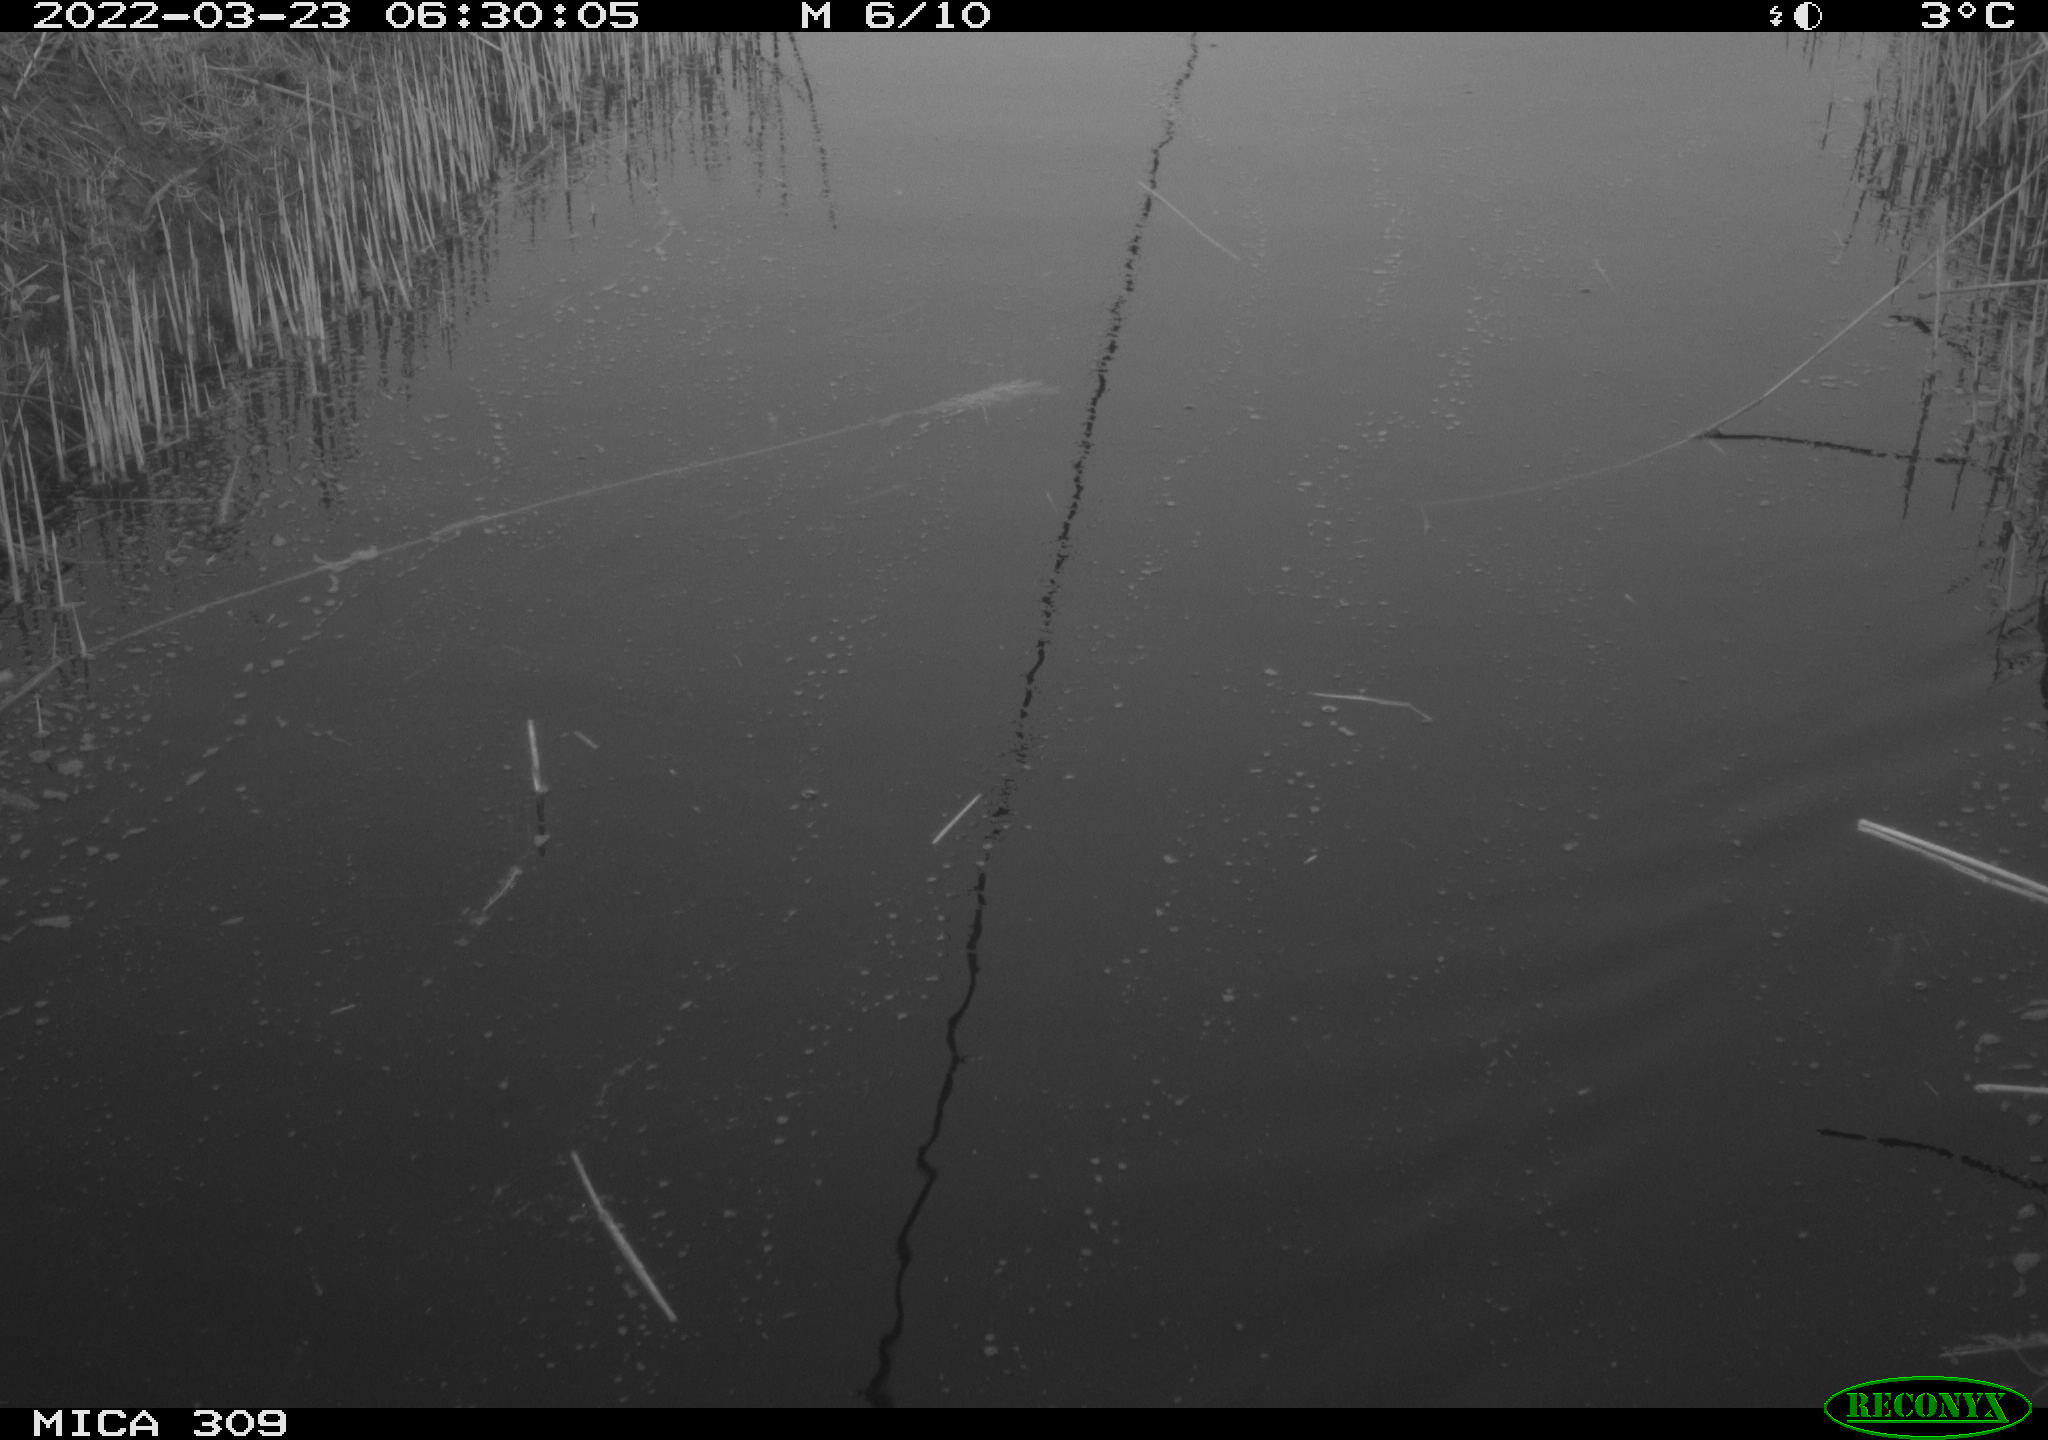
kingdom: Animalia
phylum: Chordata
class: Aves
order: Anseriformes
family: Anatidae
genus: Anas
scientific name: Anas platyrhynchos
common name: Mallard
